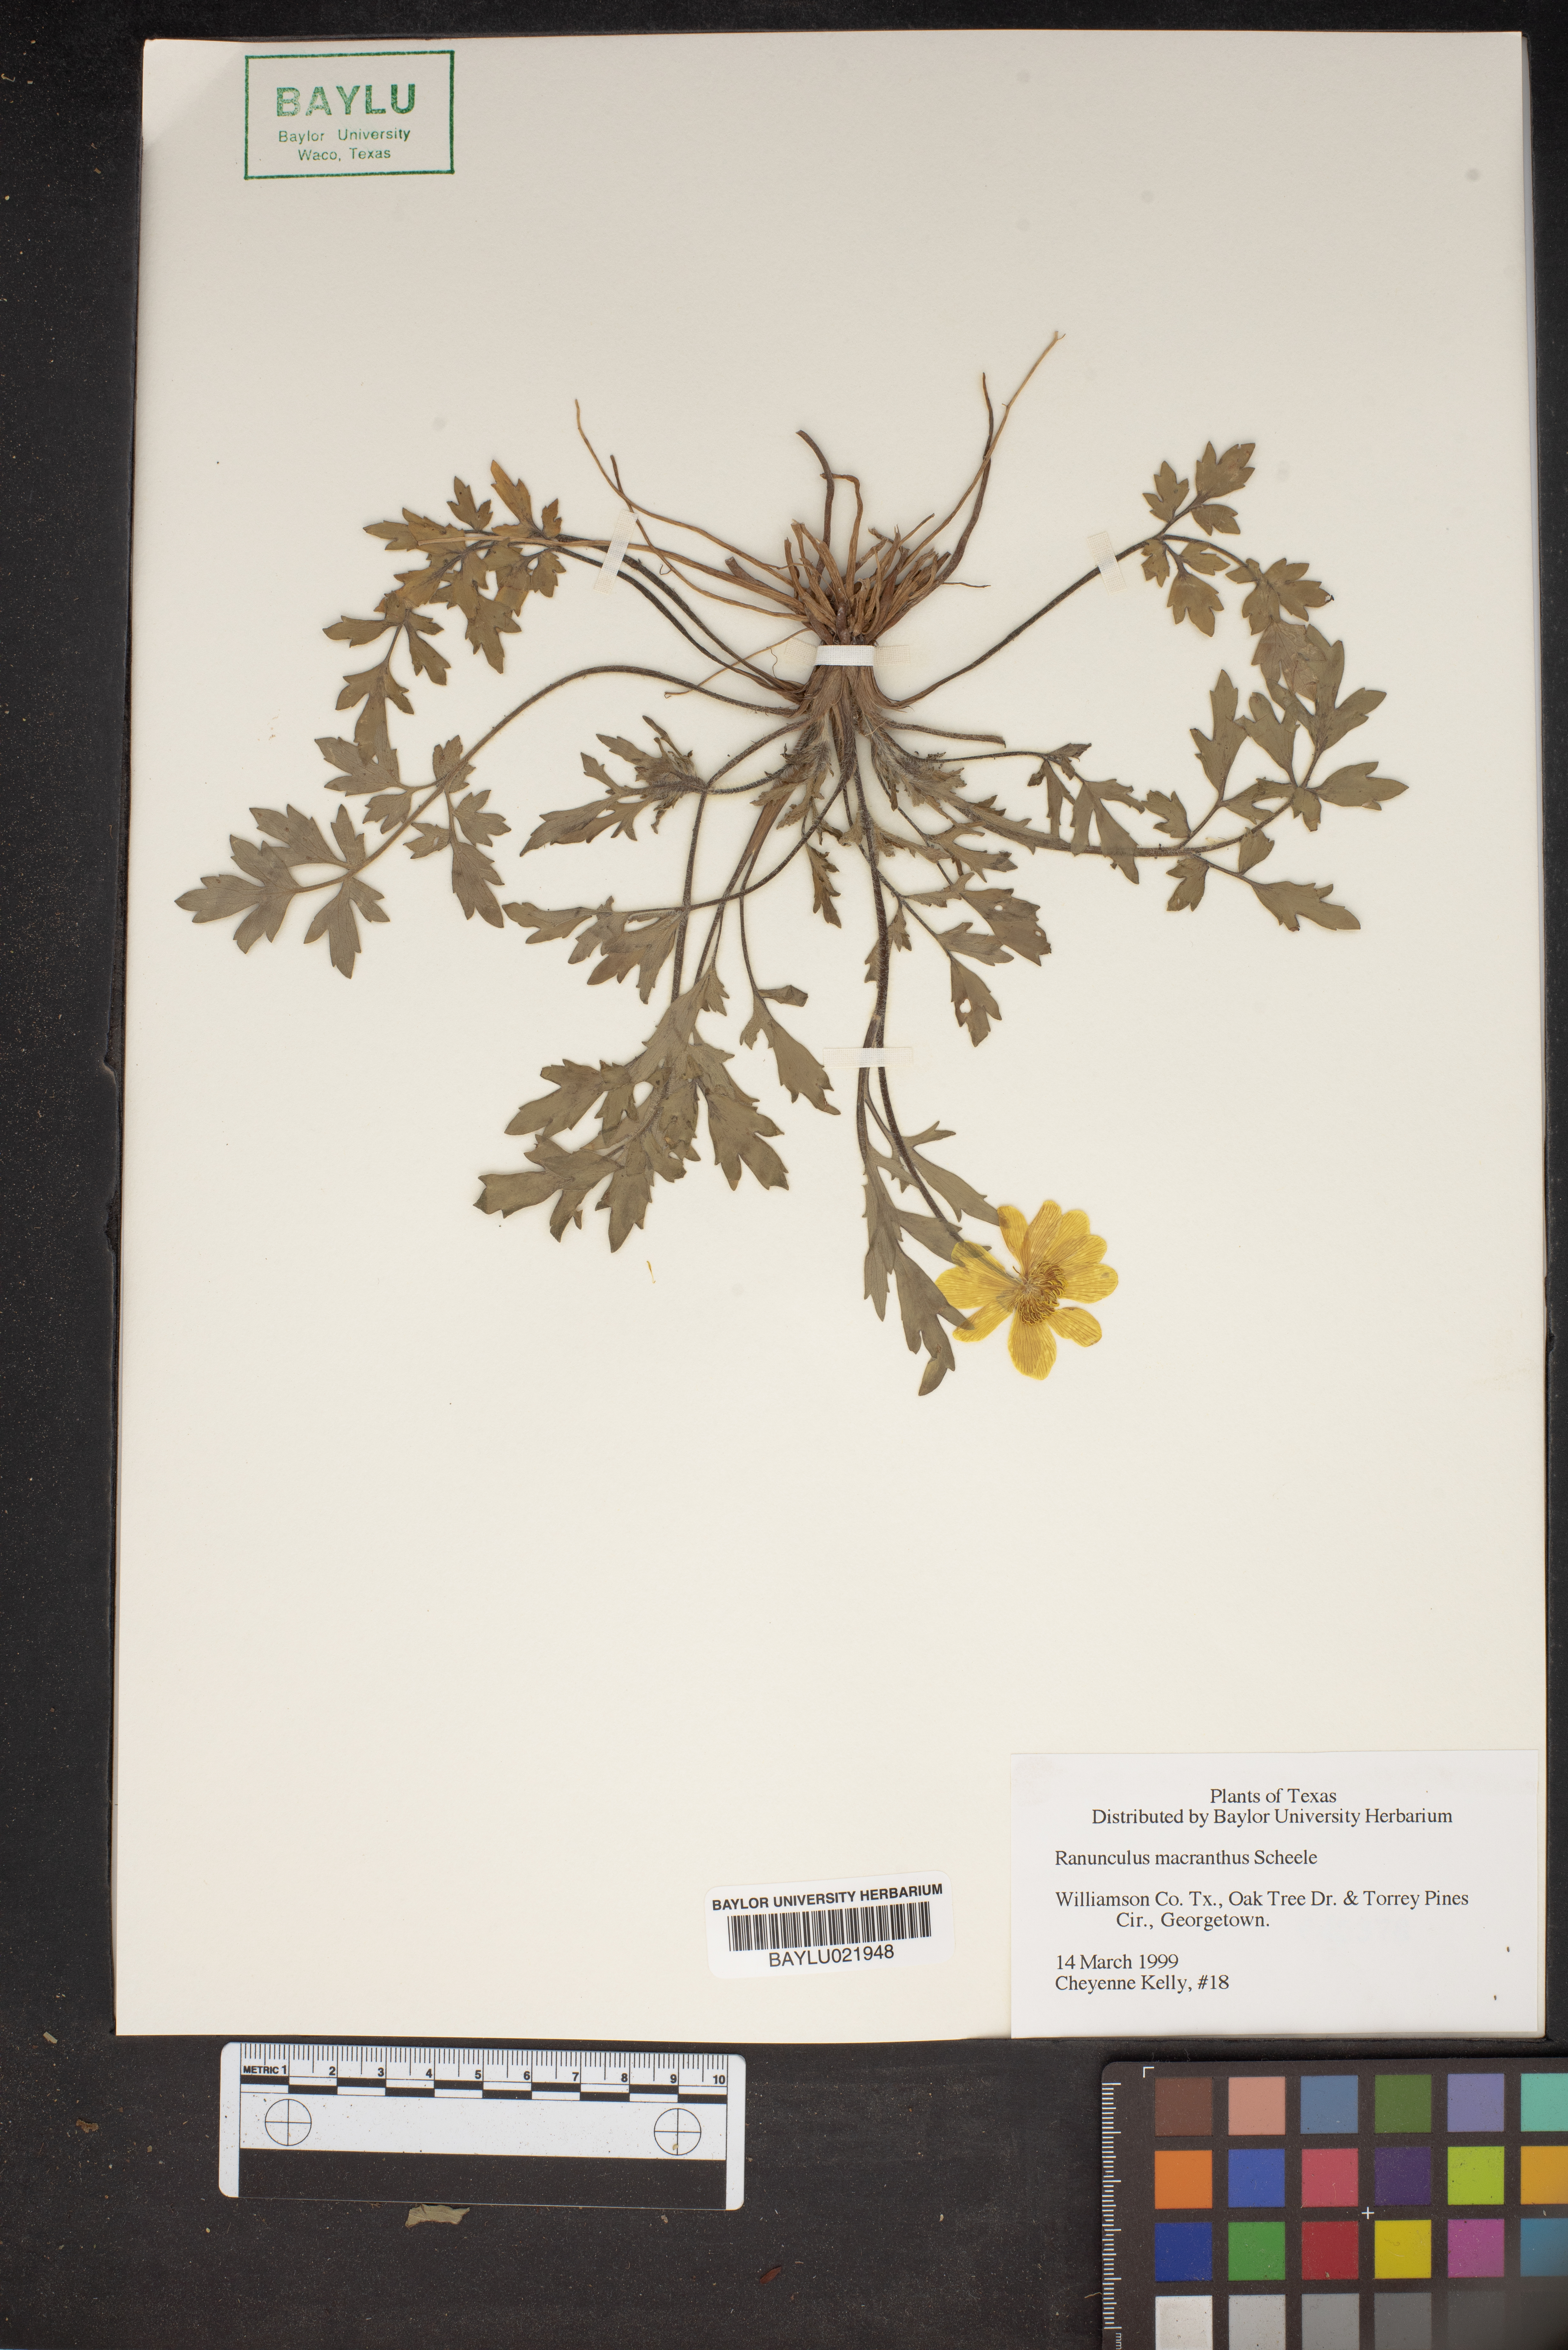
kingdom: Plantae
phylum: Tracheophyta
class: Magnoliopsida
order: Ranunculales
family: Ranunculaceae
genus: Ranunculus
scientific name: Ranunculus macranthus
